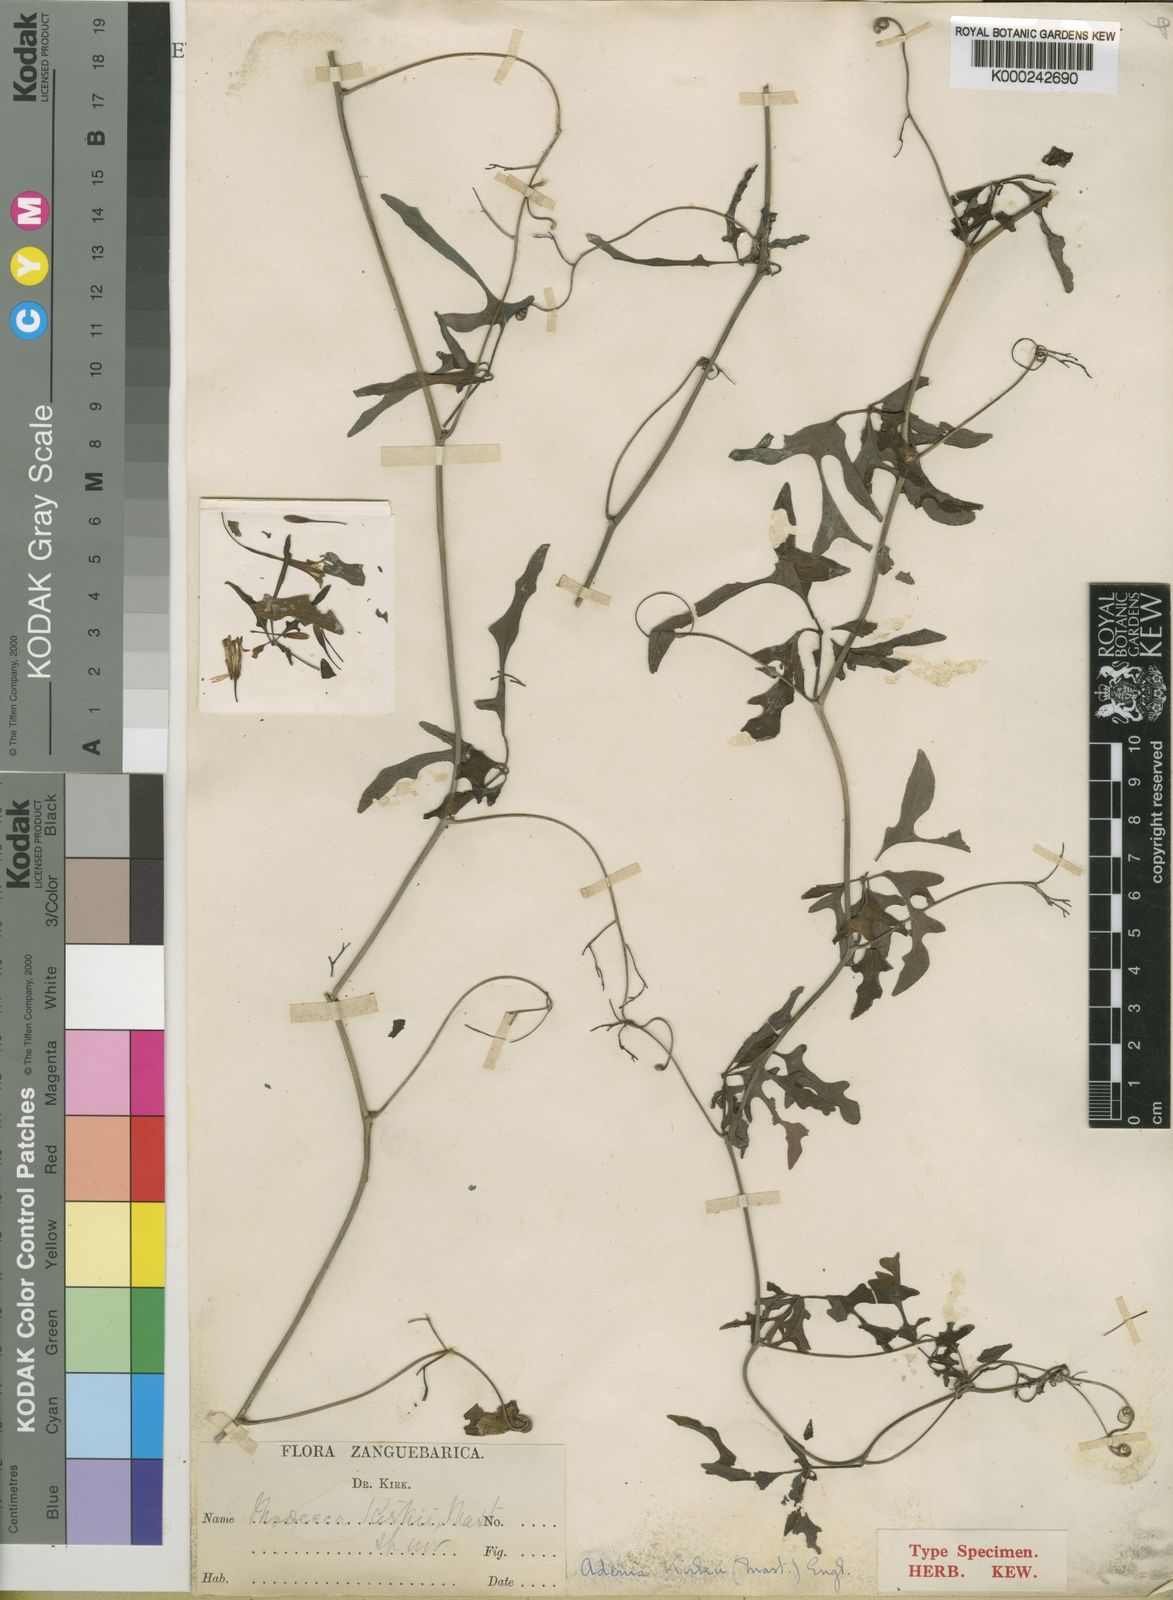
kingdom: Plantae
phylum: Tracheophyta
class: Magnoliopsida
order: Malpighiales
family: Passifloraceae
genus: Adenia
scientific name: Adenia kirkii
